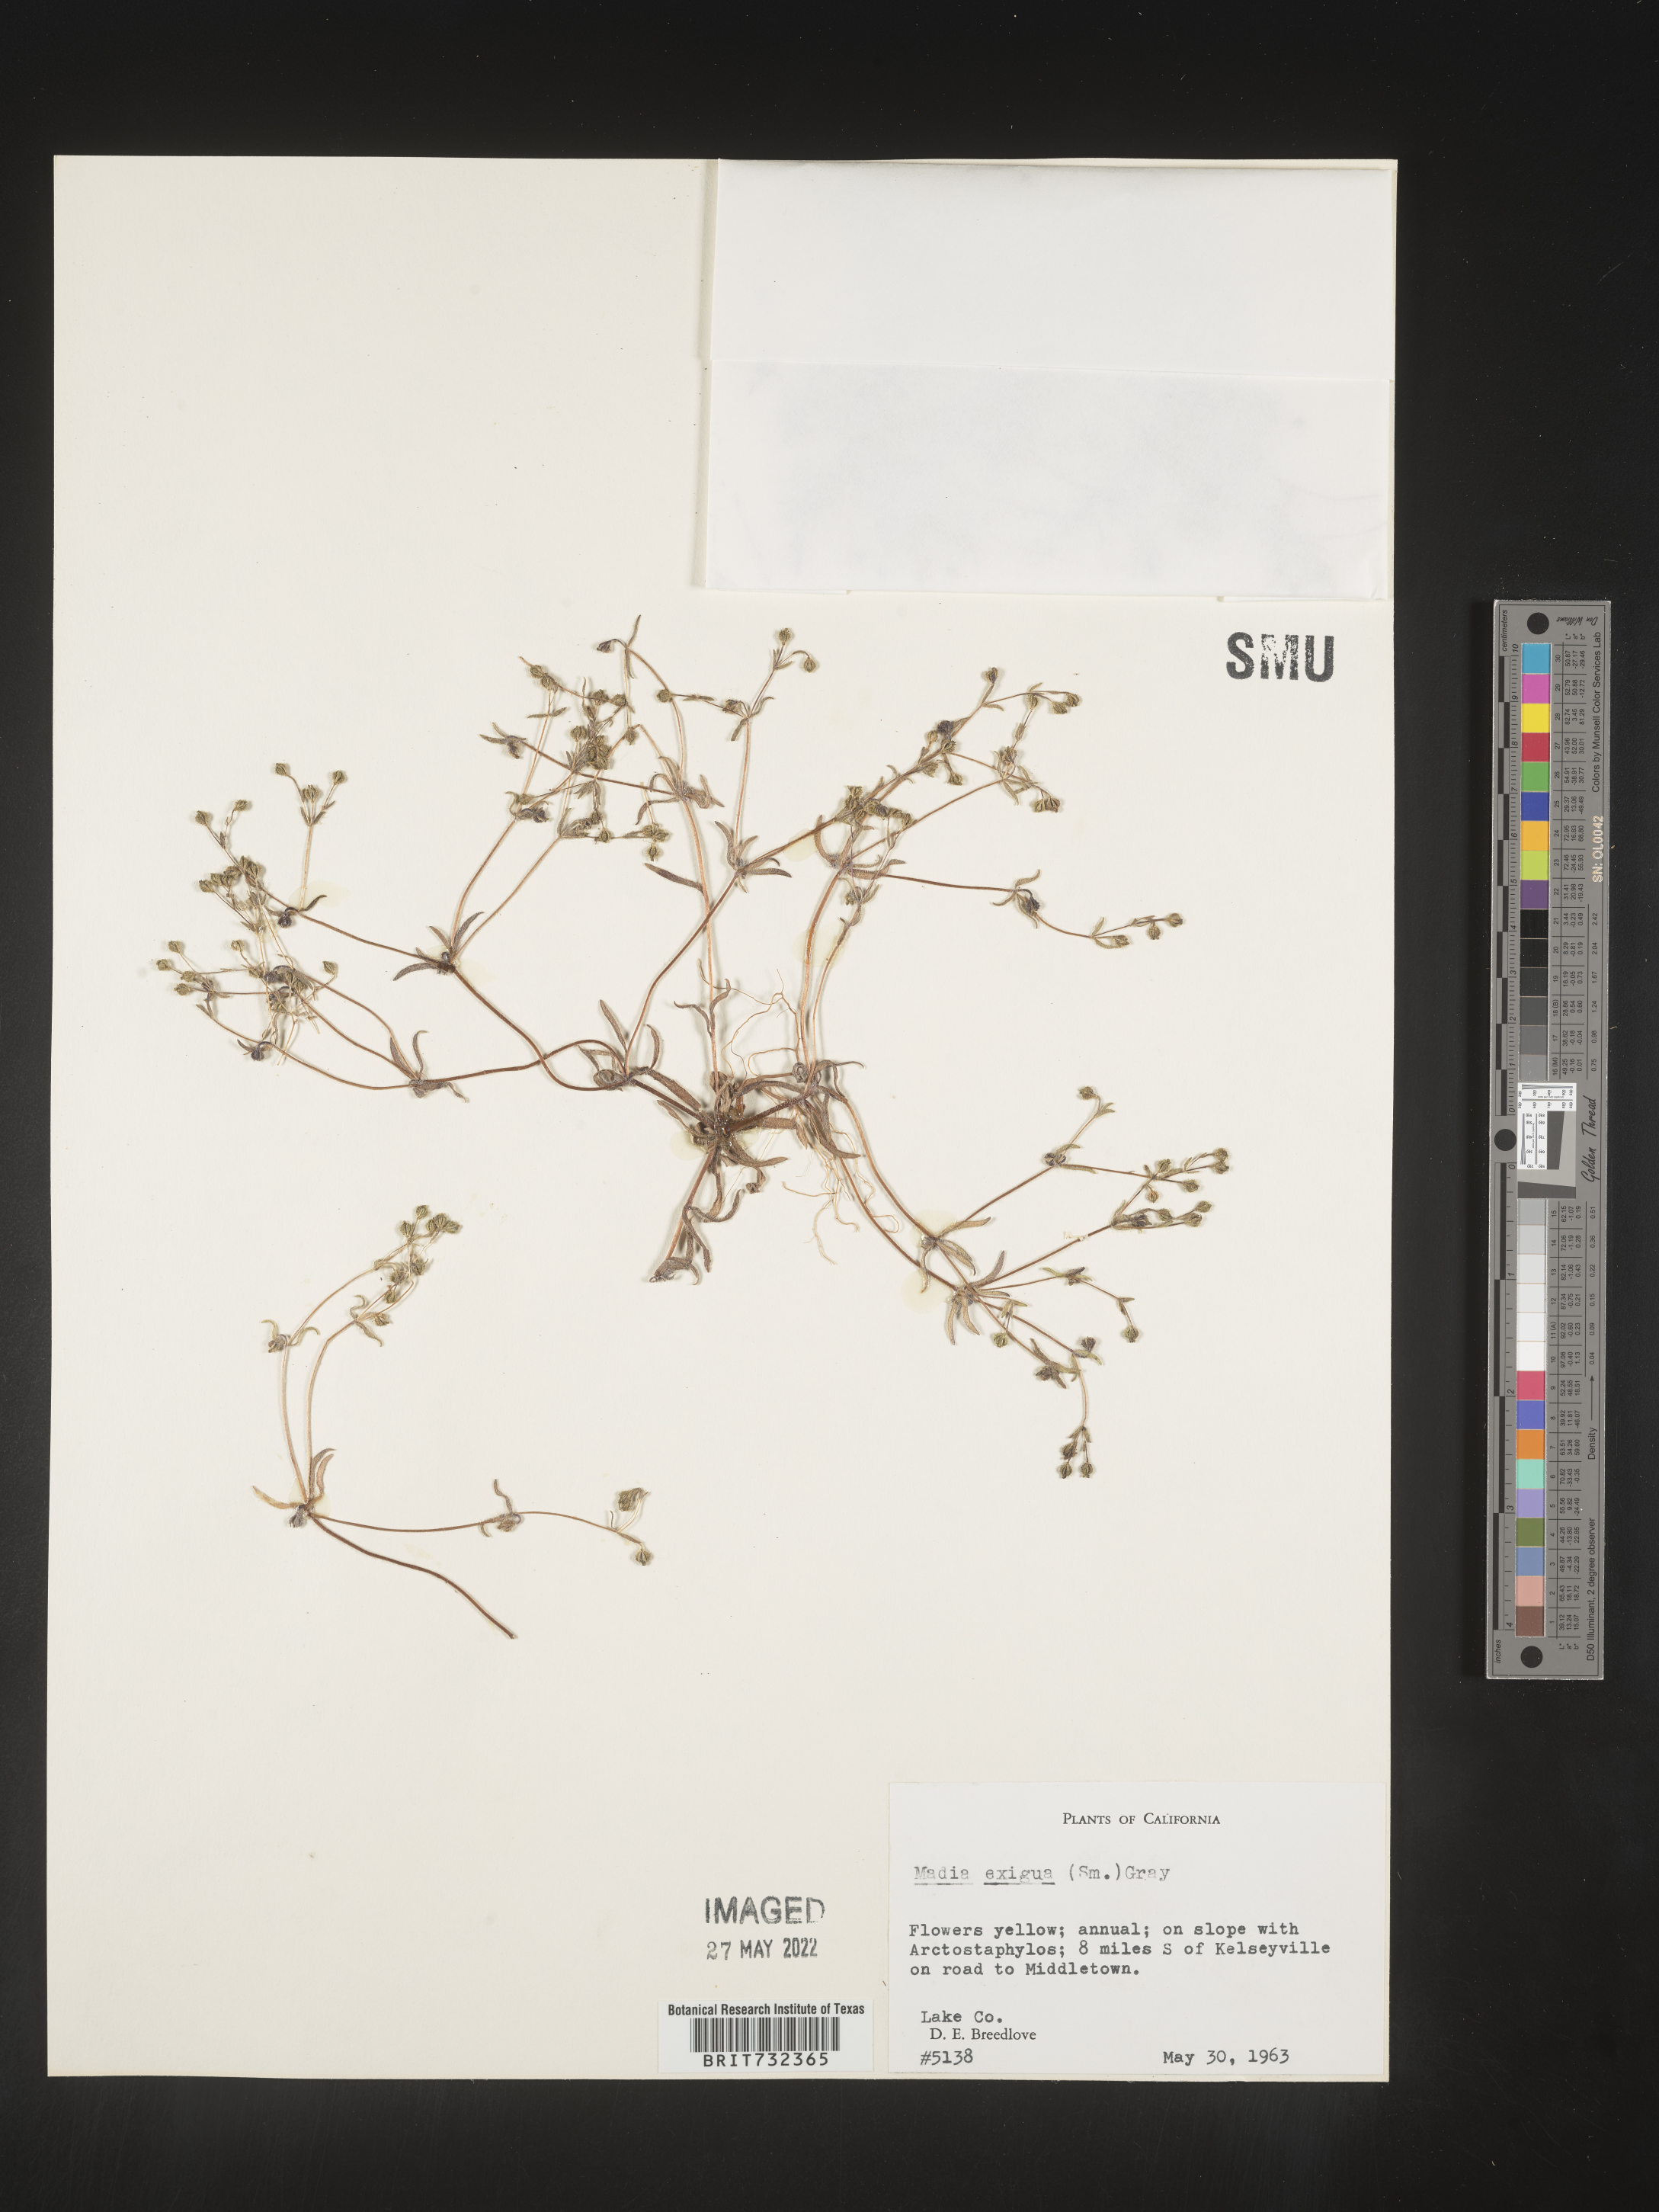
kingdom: Plantae
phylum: Tracheophyta
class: Magnoliopsida
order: Asterales
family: Asteraceae
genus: Madia
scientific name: Madia
